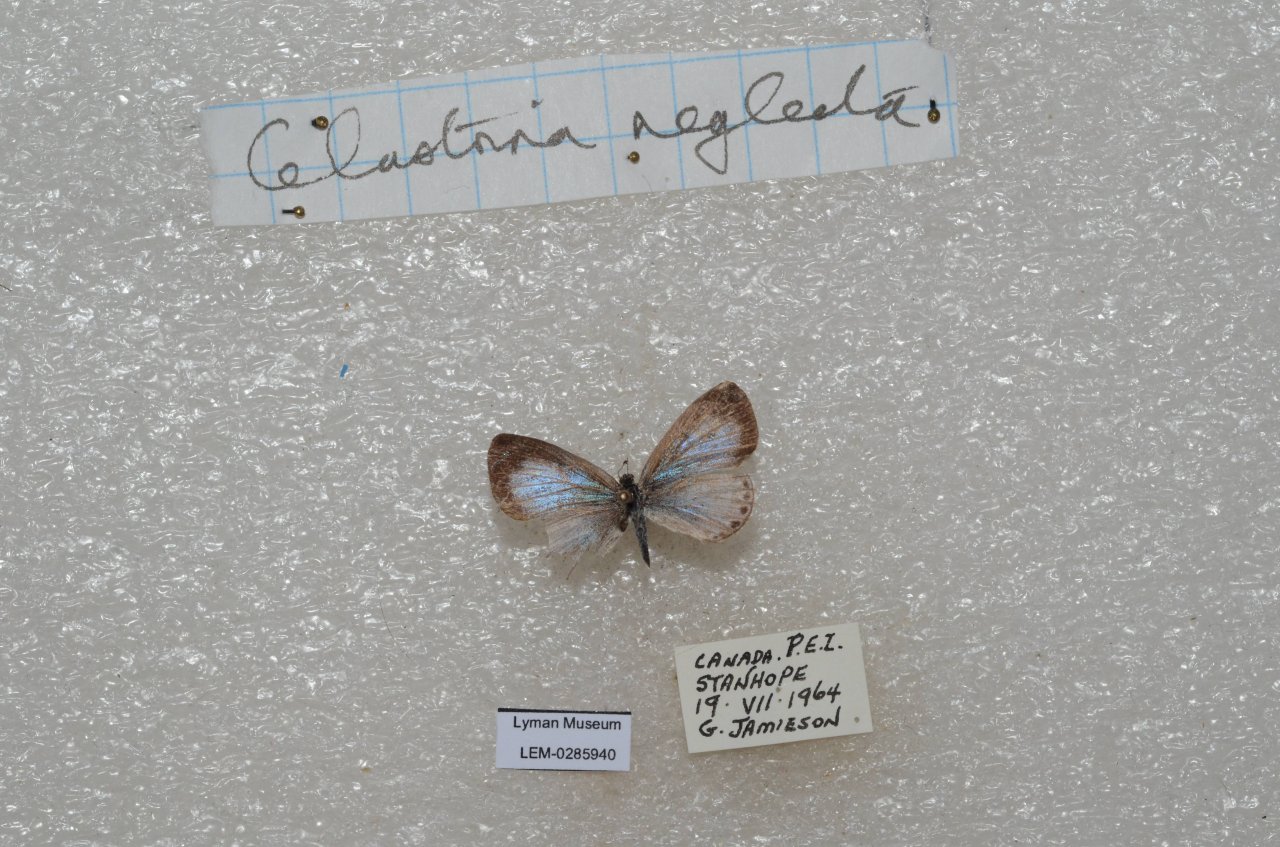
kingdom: Animalia
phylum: Arthropoda
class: Insecta
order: Lepidoptera
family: Lycaenidae
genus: Celastrina
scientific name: Celastrina
